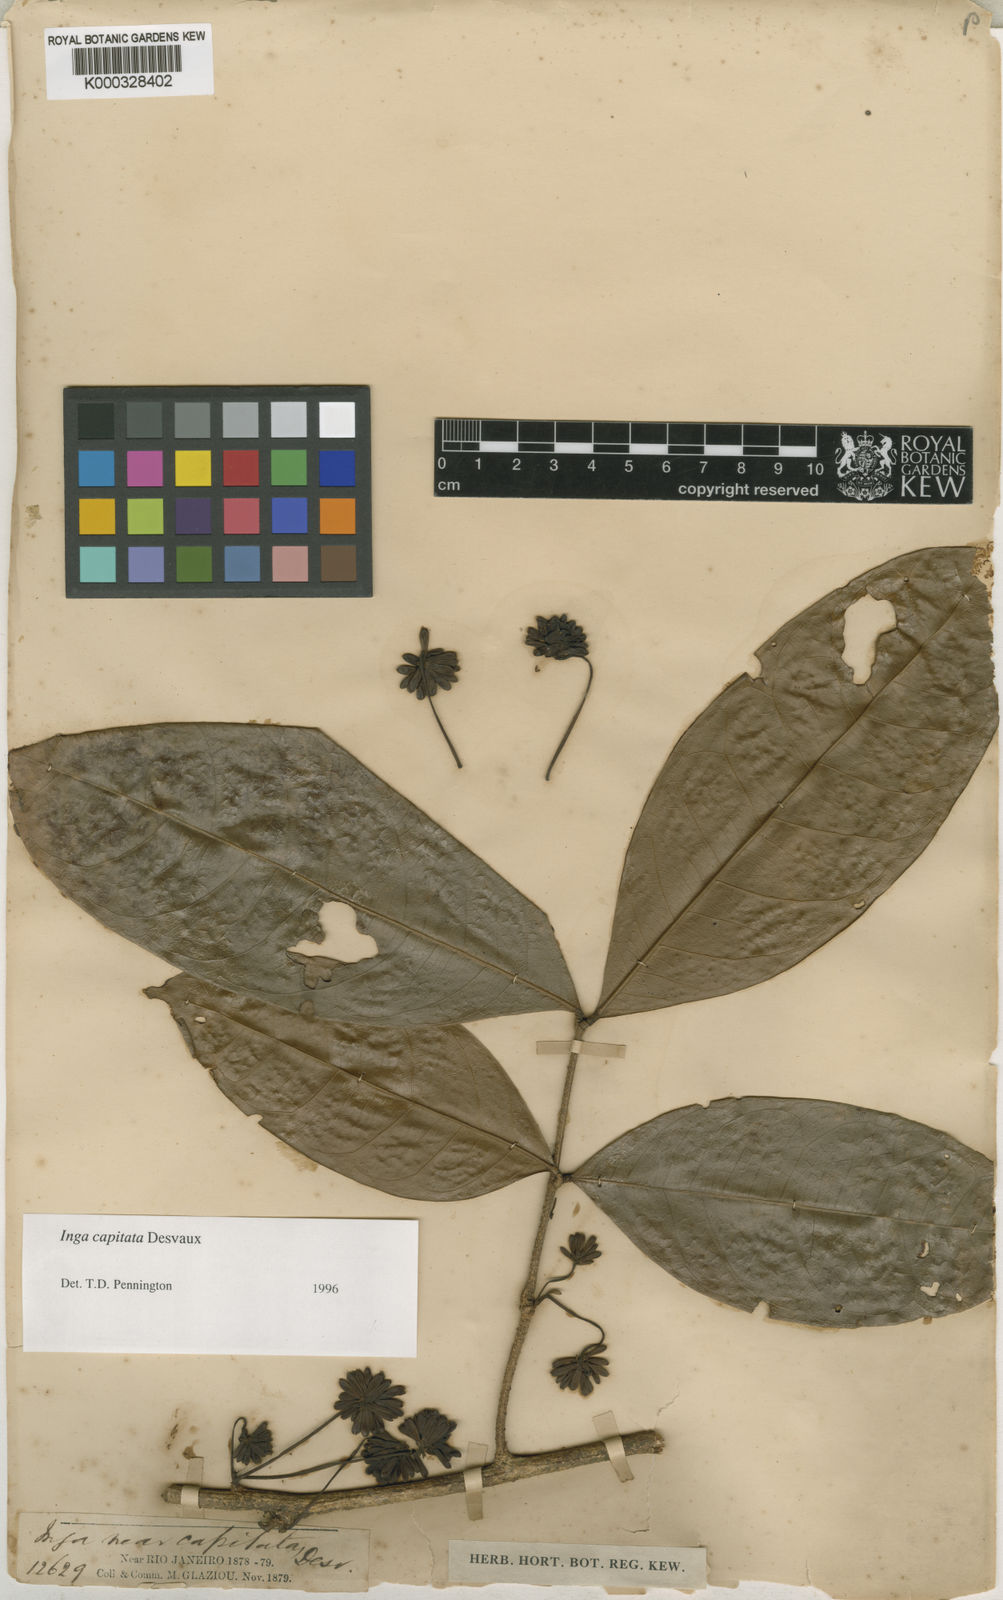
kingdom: Plantae
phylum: Tracheophyta
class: Magnoliopsida
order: Fabales
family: Fabaceae
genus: Inga
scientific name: Inga capitata
